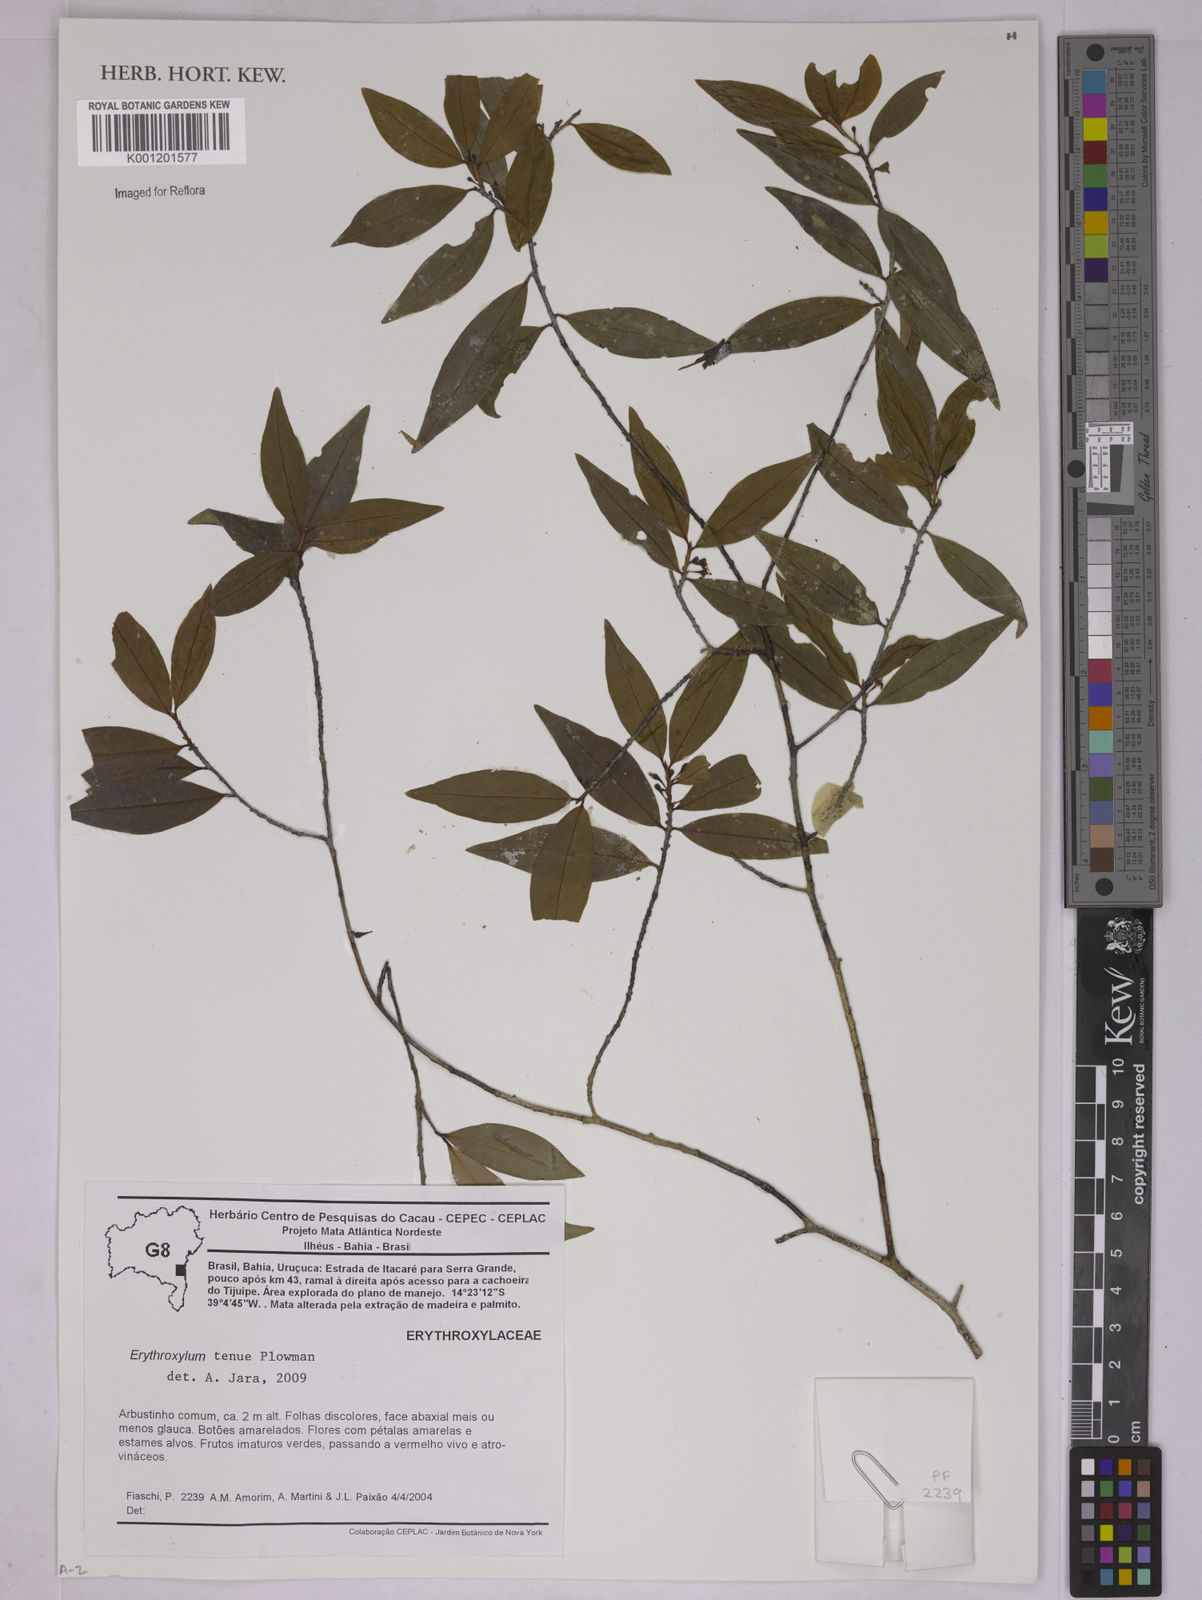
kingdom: Plantae
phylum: Tracheophyta
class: Magnoliopsida
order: Malpighiales
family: Erythroxylaceae
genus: Erythroxylum
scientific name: Erythroxylum tenue
